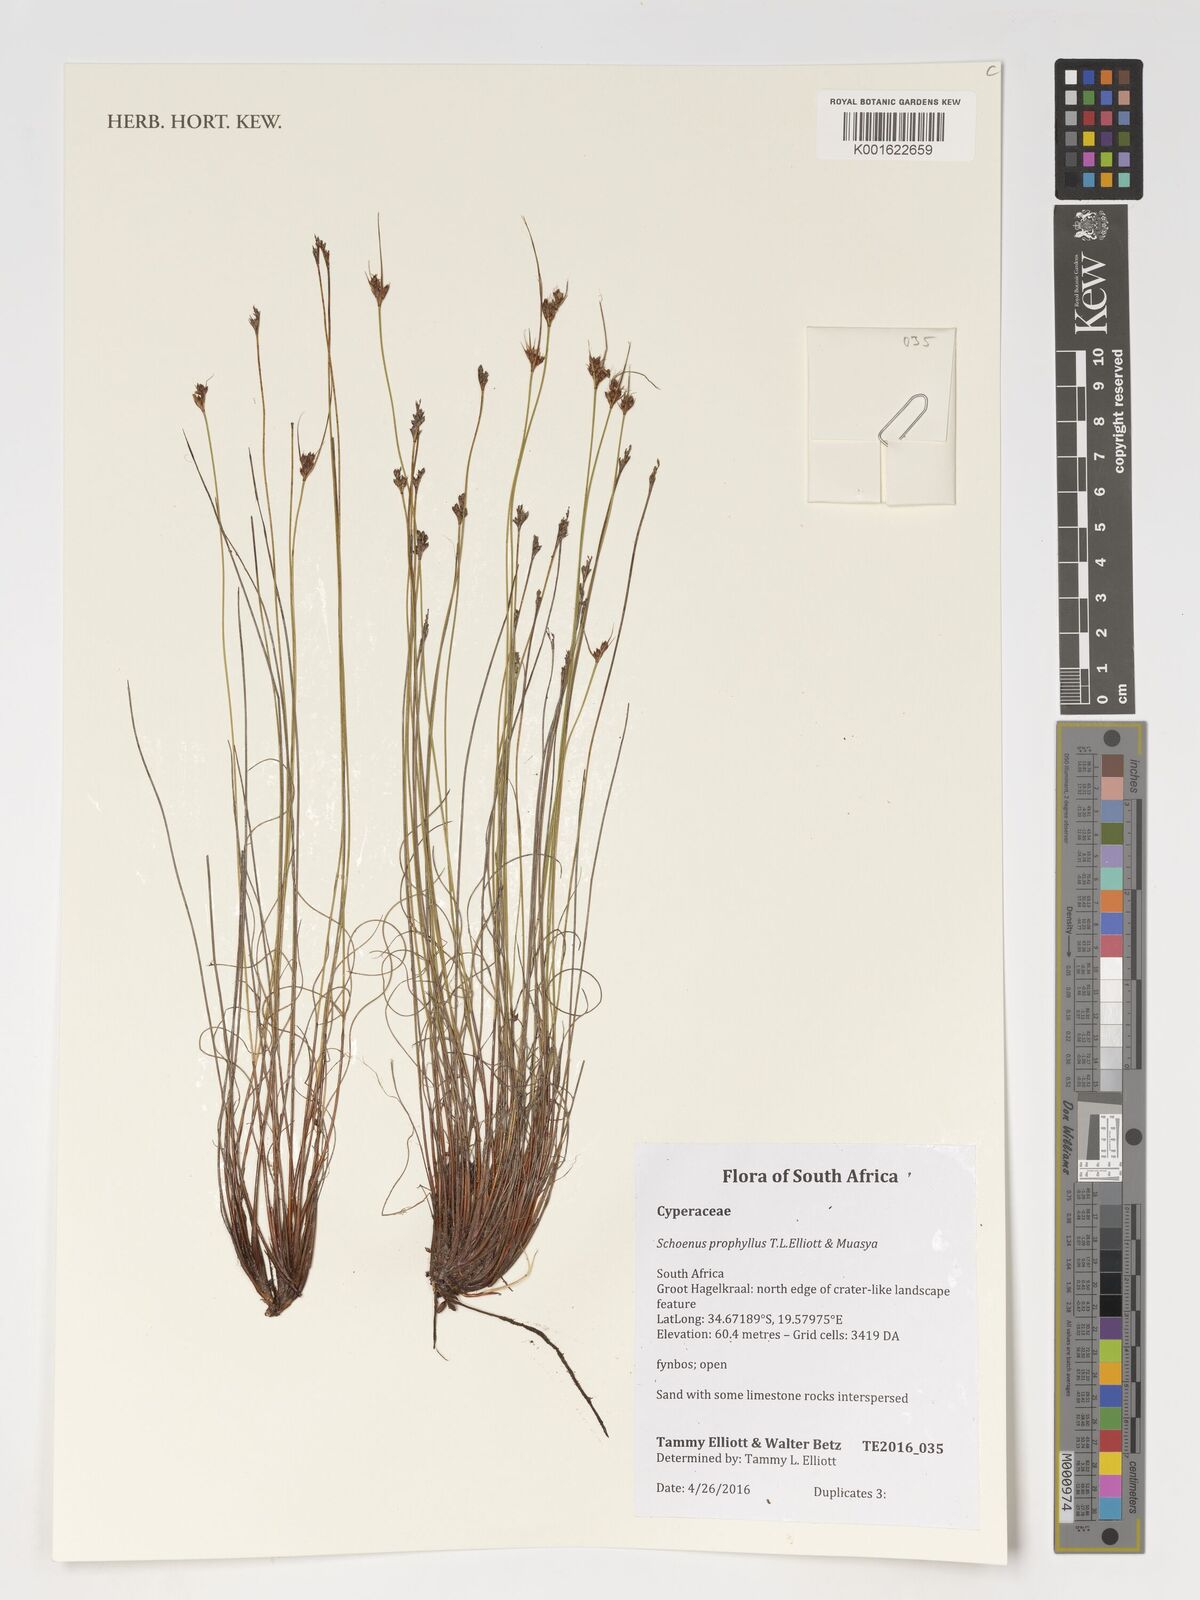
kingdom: Plantae
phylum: Tracheophyta
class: Liliopsida
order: Poales
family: Cyperaceae
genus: Schoenus
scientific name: Schoenus prophyllus
